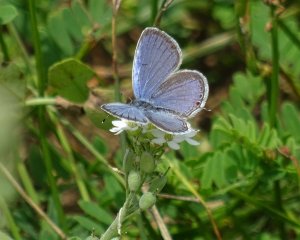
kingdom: Animalia
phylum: Arthropoda
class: Insecta
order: Lepidoptera
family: Lycaenidae
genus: Elkalyce
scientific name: Elkalyce comyntas
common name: Eastern Tailed-Blue
